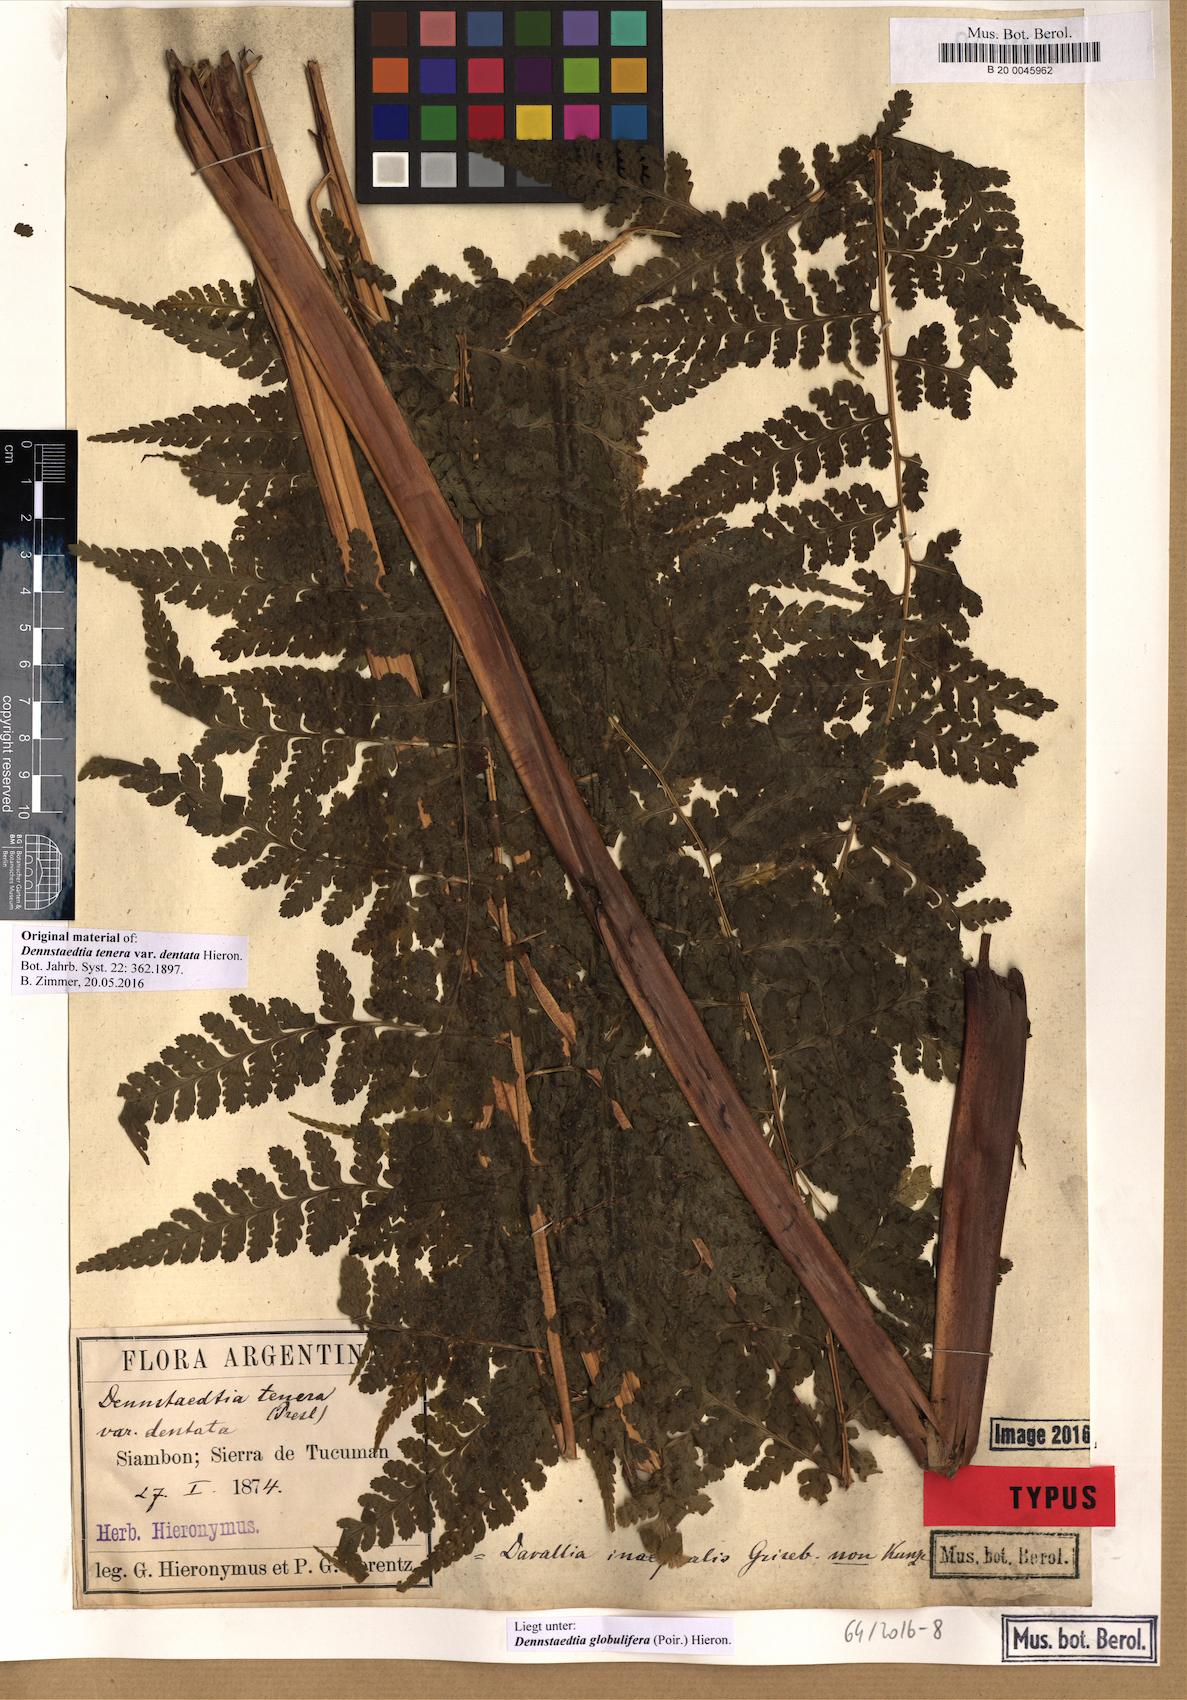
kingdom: Plantae
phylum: Tracheophyta
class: Polypodiopsida
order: Polypodiales
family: Dennstaedtiaceae
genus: Mucura
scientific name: Mucura globulifera
